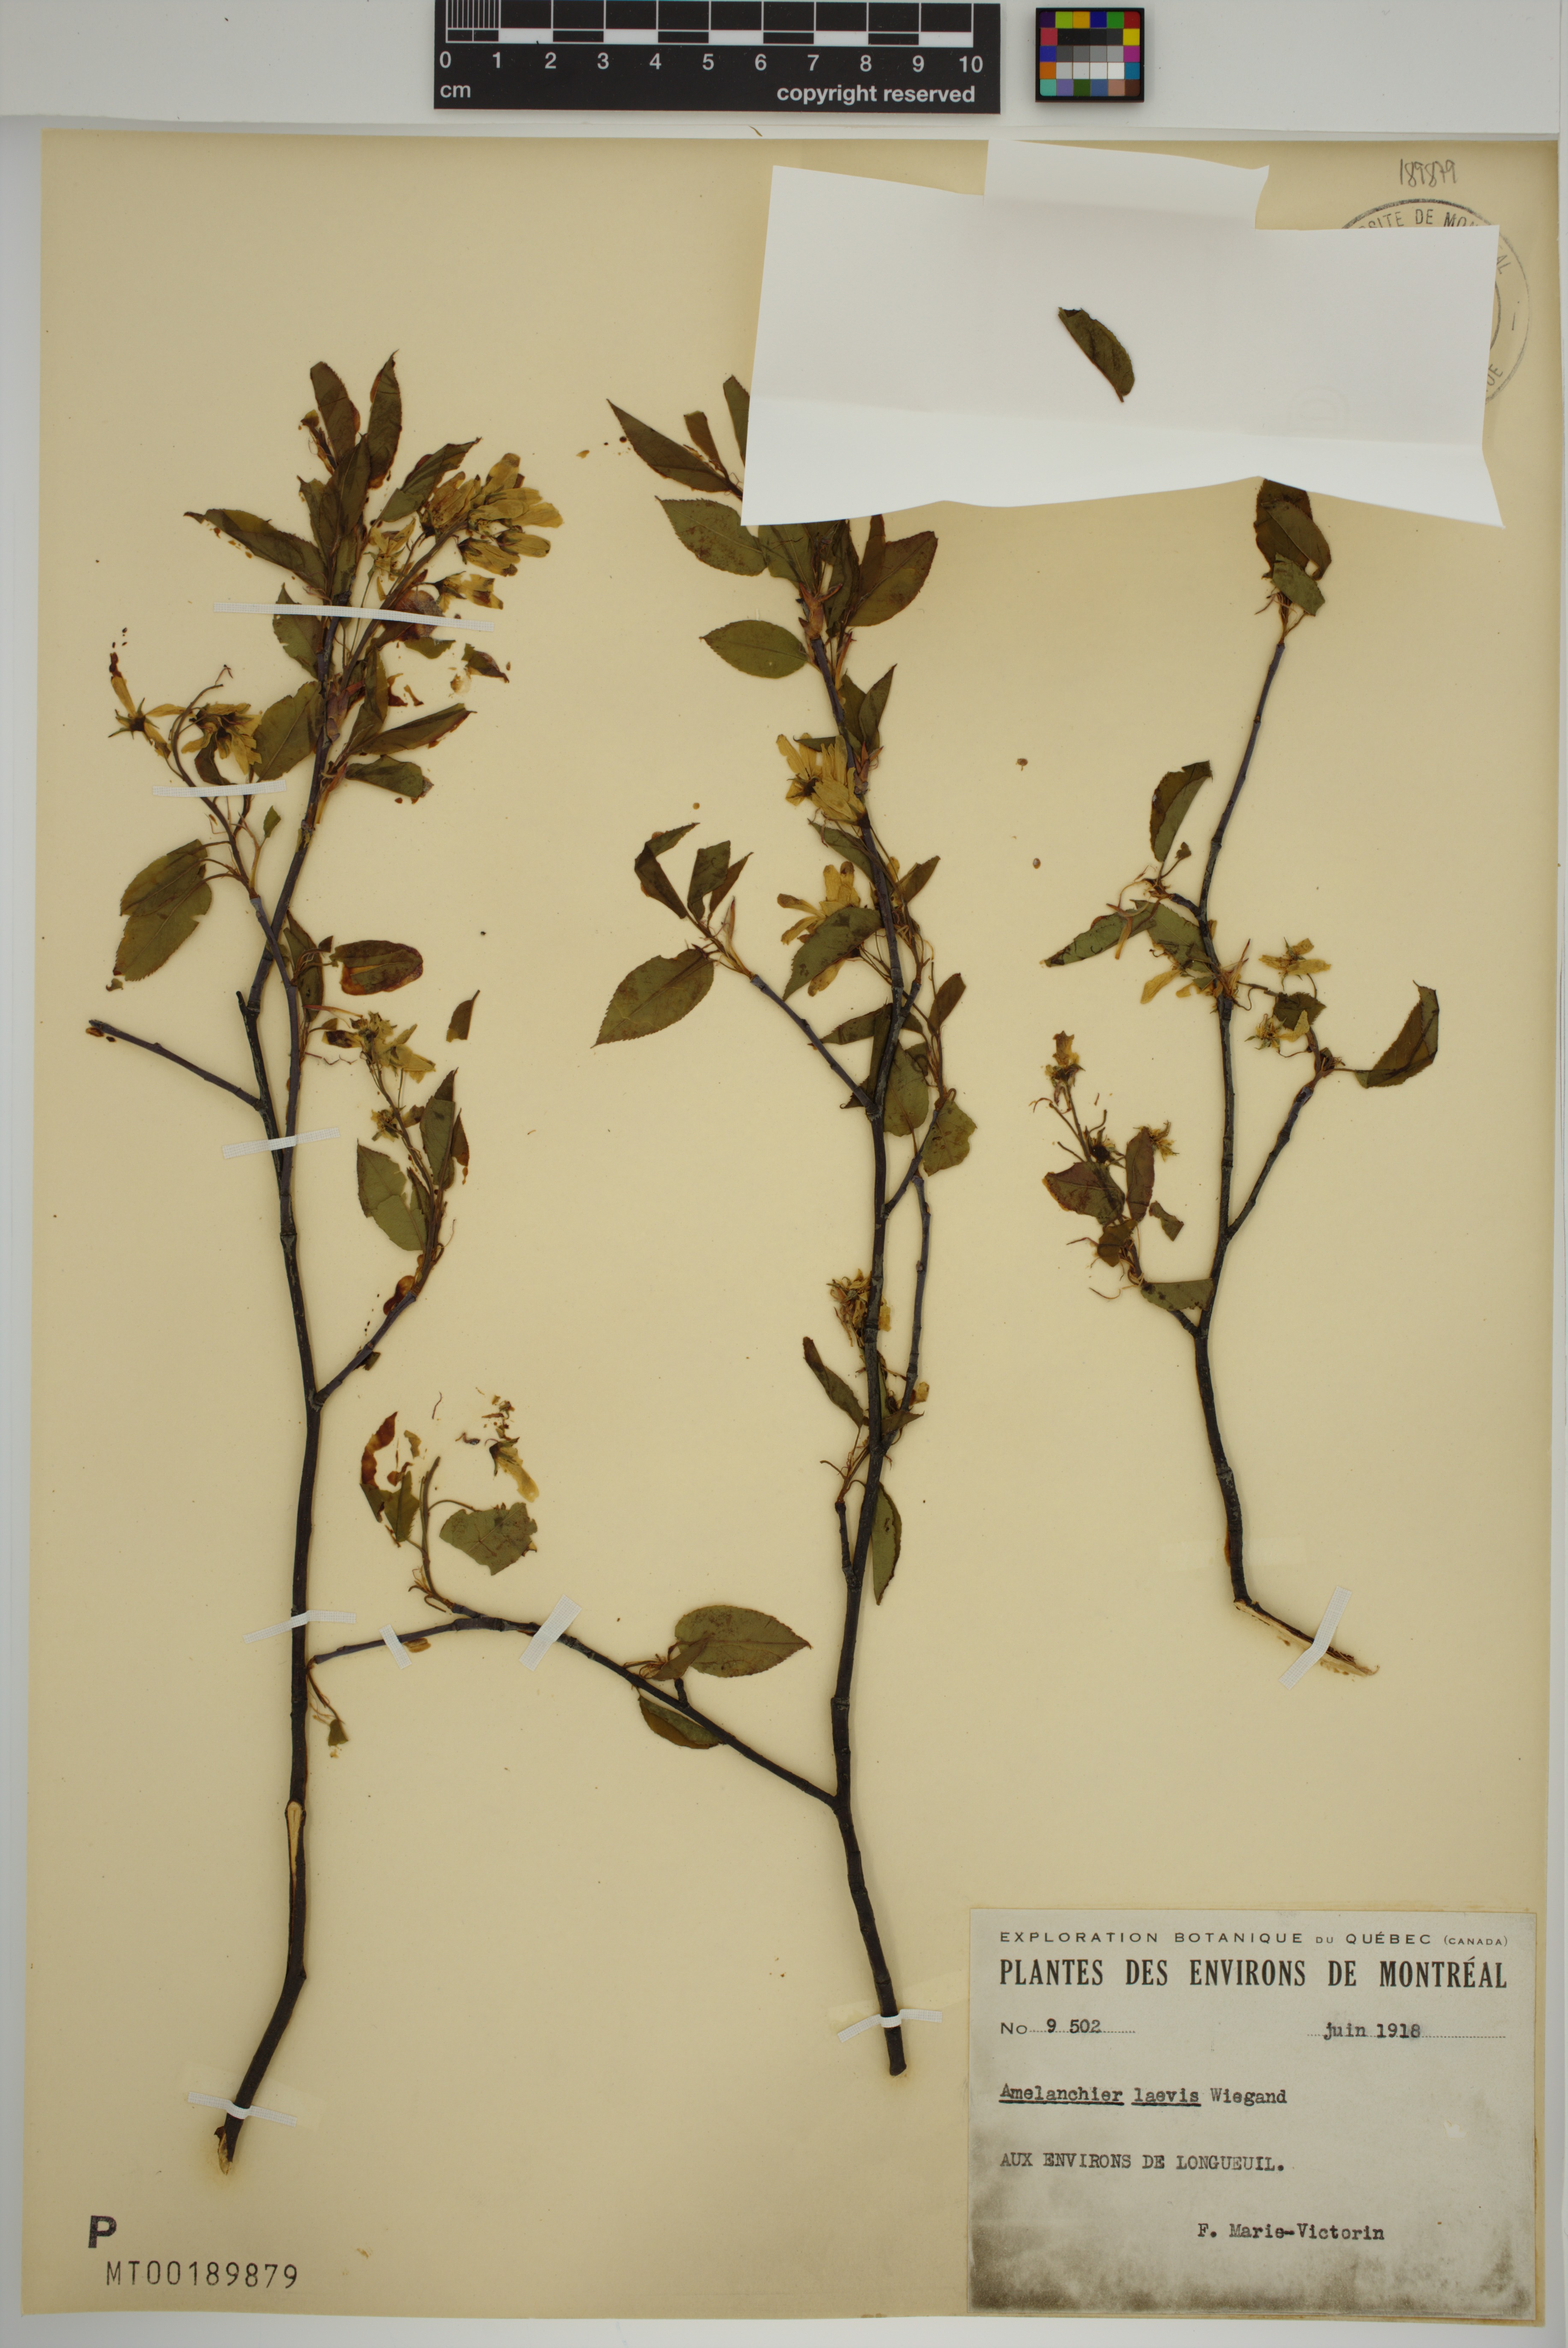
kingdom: Plantae
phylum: Tracheophyta
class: Magnoliopsida
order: Rosales
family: Rosaceae
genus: Amelanchier
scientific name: Amelanchier laevis
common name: Allegheny serviceberry
